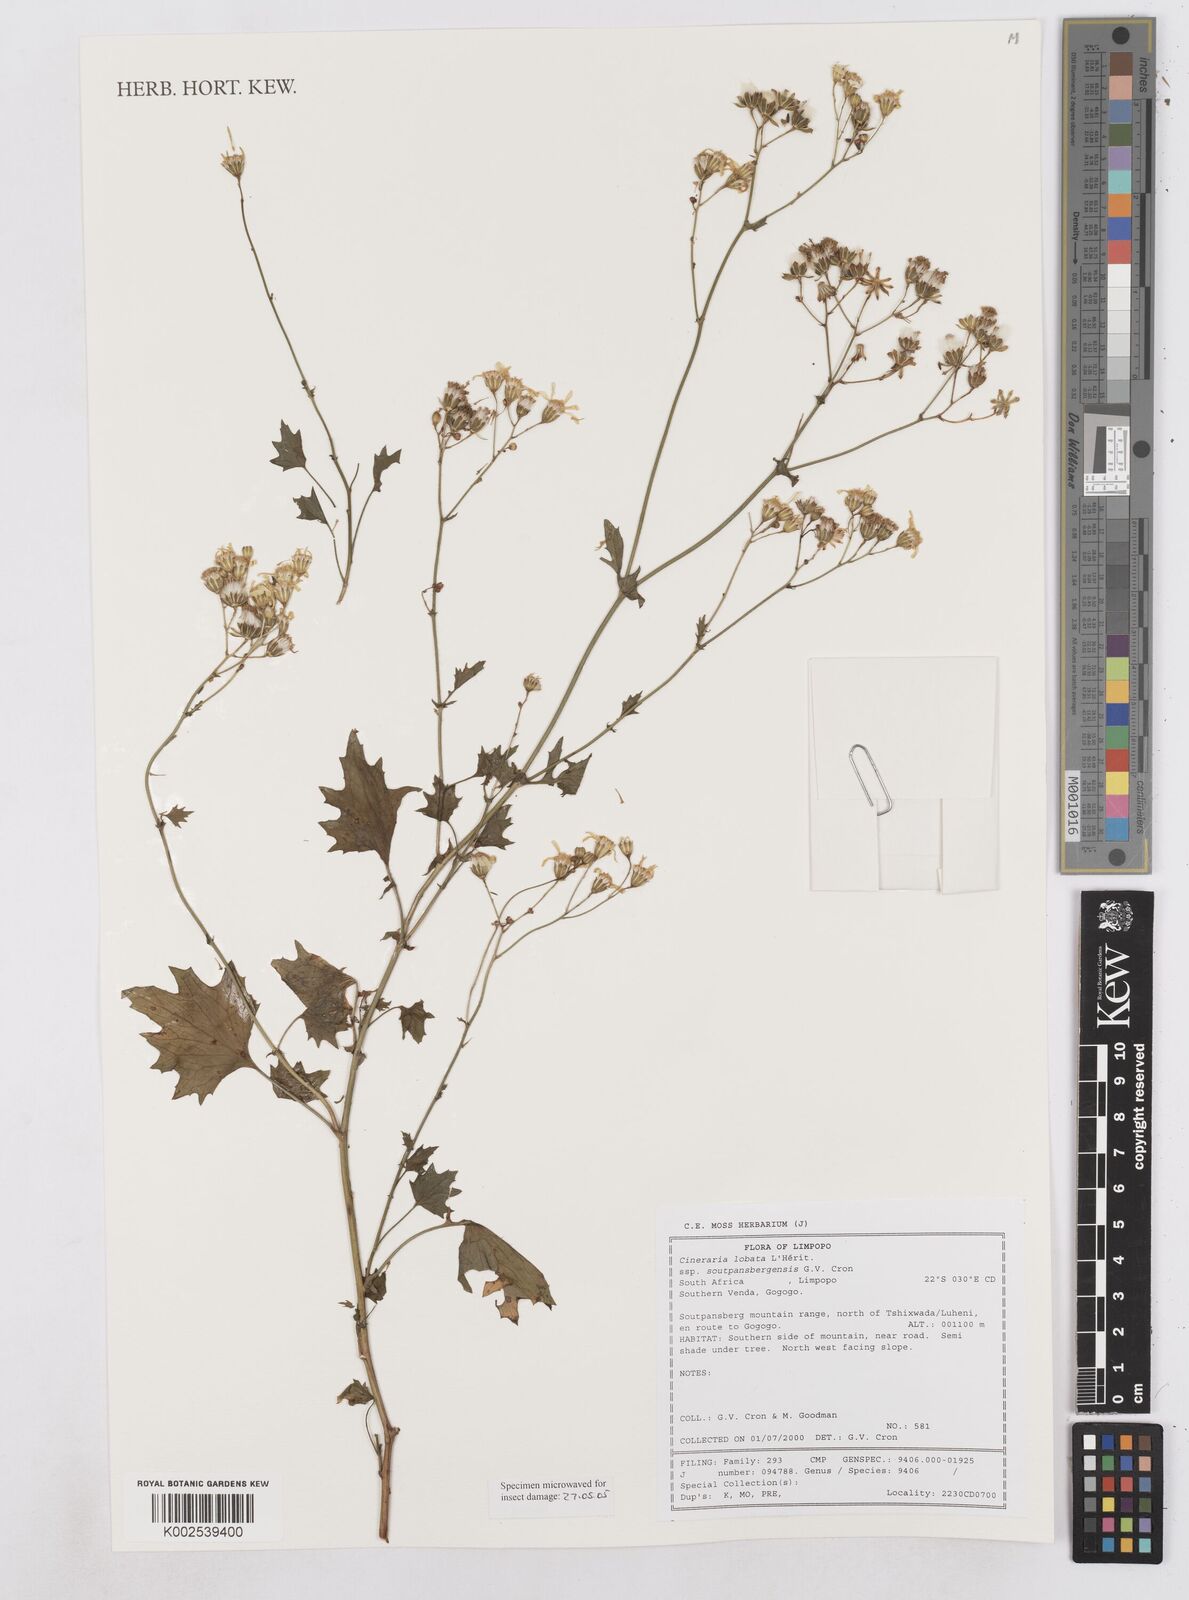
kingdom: Plantae
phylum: Tracheophyta
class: Magnoliopsida
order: Asterales
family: Asteraceae
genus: Cineraria
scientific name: Cineraria
